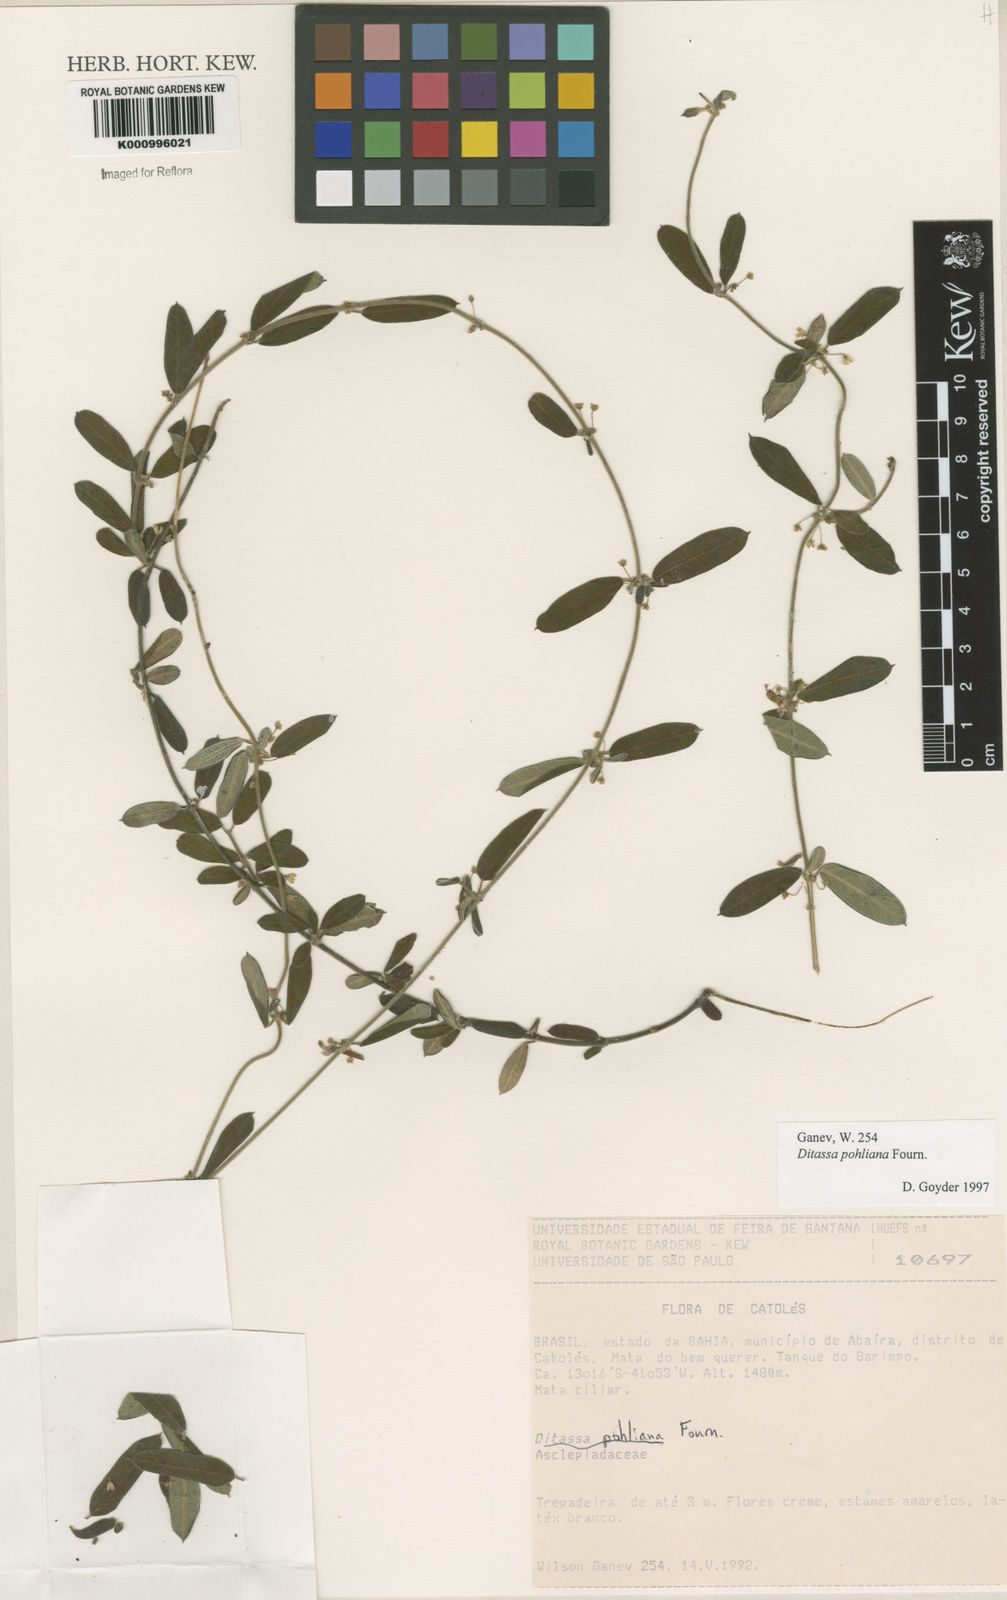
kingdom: Plantae
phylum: Tracheophyta
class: Magnoliopsida
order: Gentianales
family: Apocynaceae
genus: Ditassa
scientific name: Ditassa pohliana
